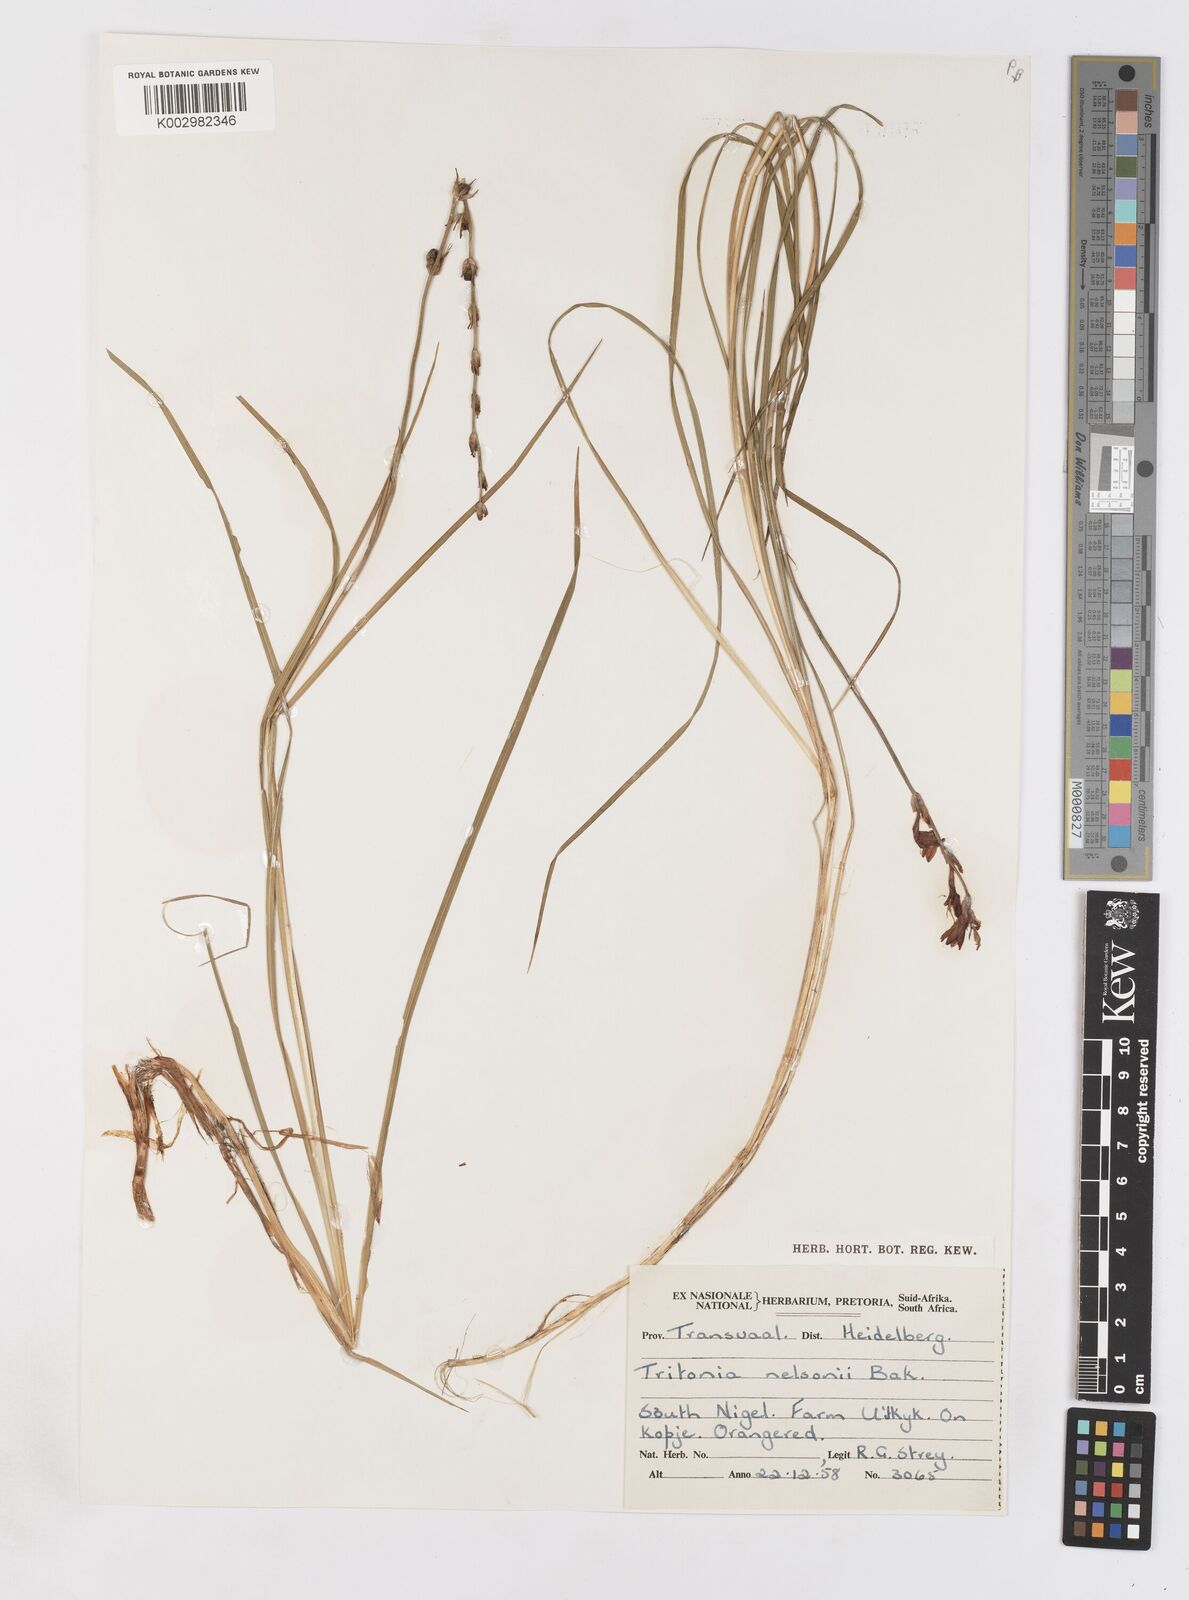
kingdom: Plantae
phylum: Tracheophyta
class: Liliopsida
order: Asparagales
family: Iridaceae
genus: Tritonia
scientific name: Tritonia nelsonii
